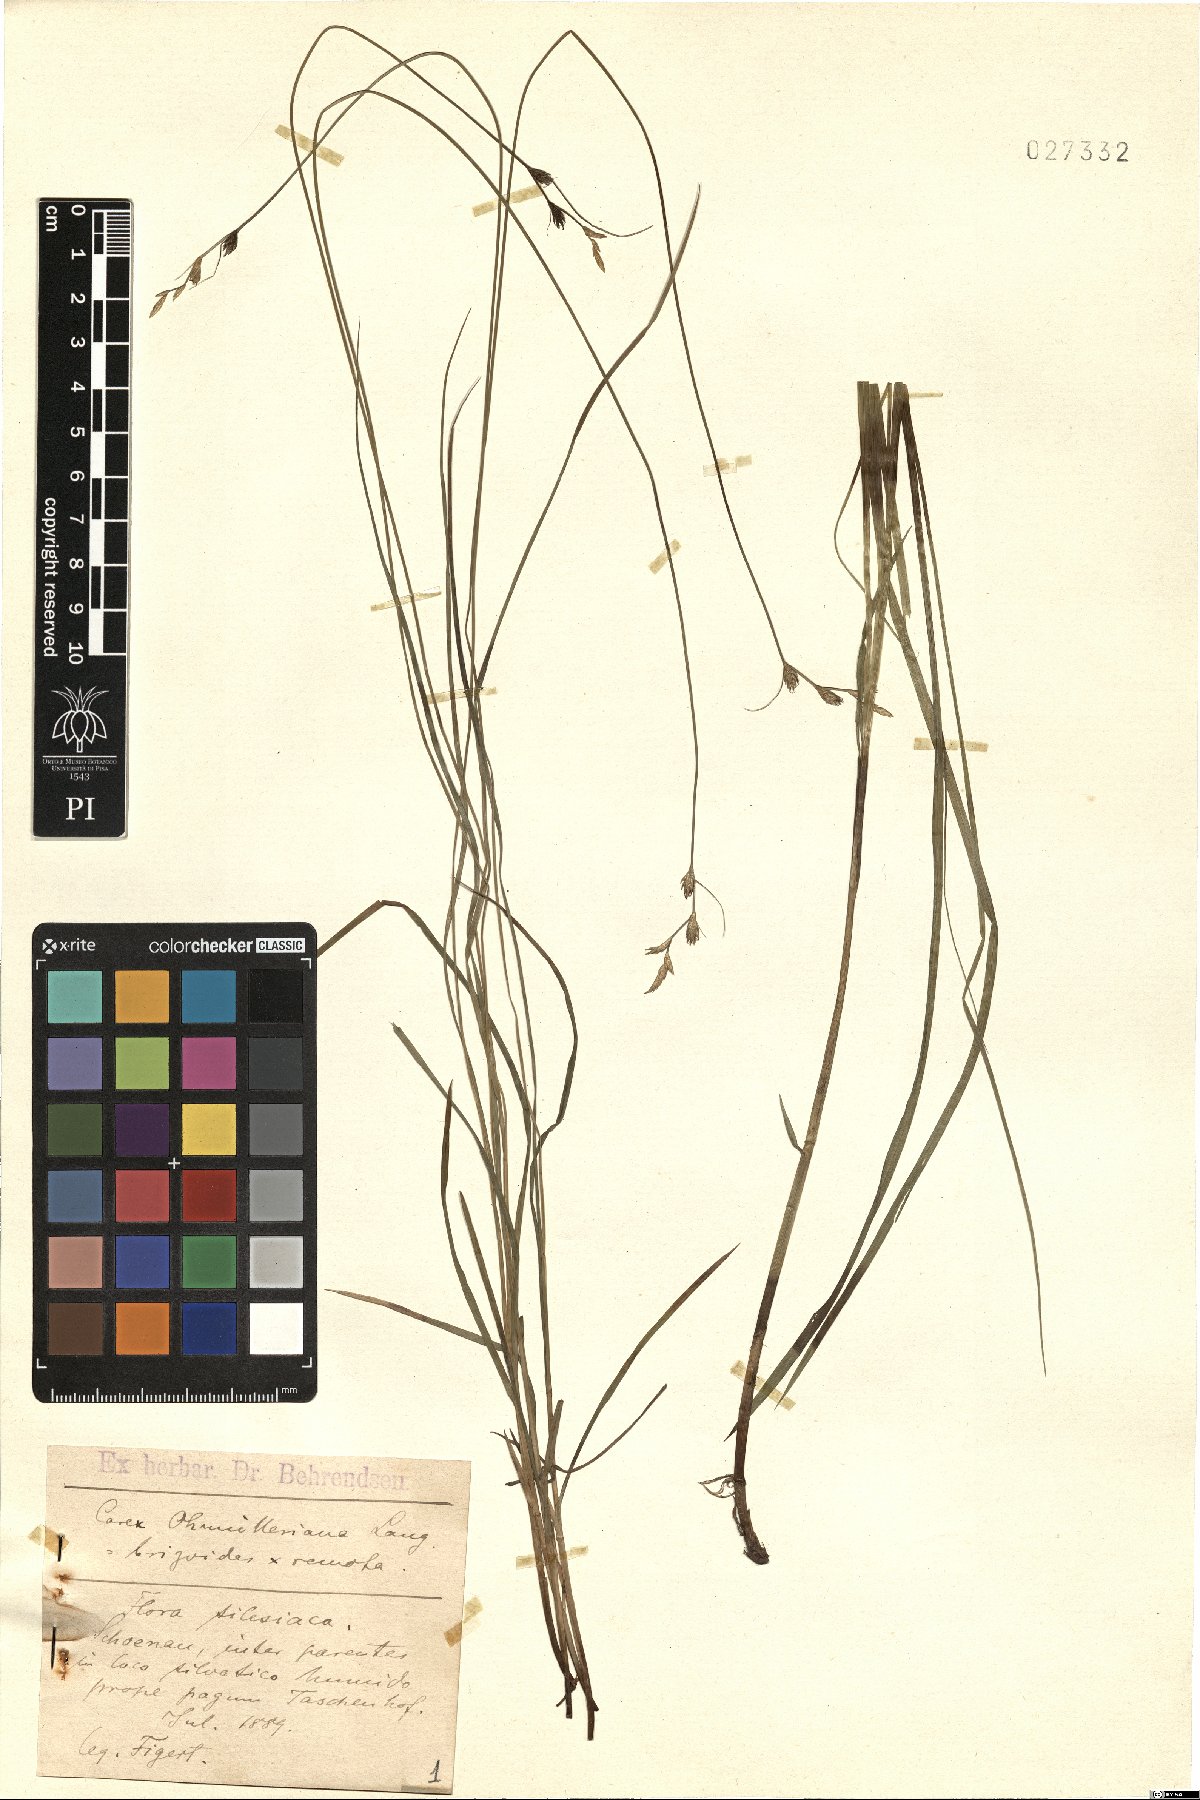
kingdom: Plantae
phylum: Tracheophyta
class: Liliopsida
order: Poales
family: Cyperaceae
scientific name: Cyperaceae
